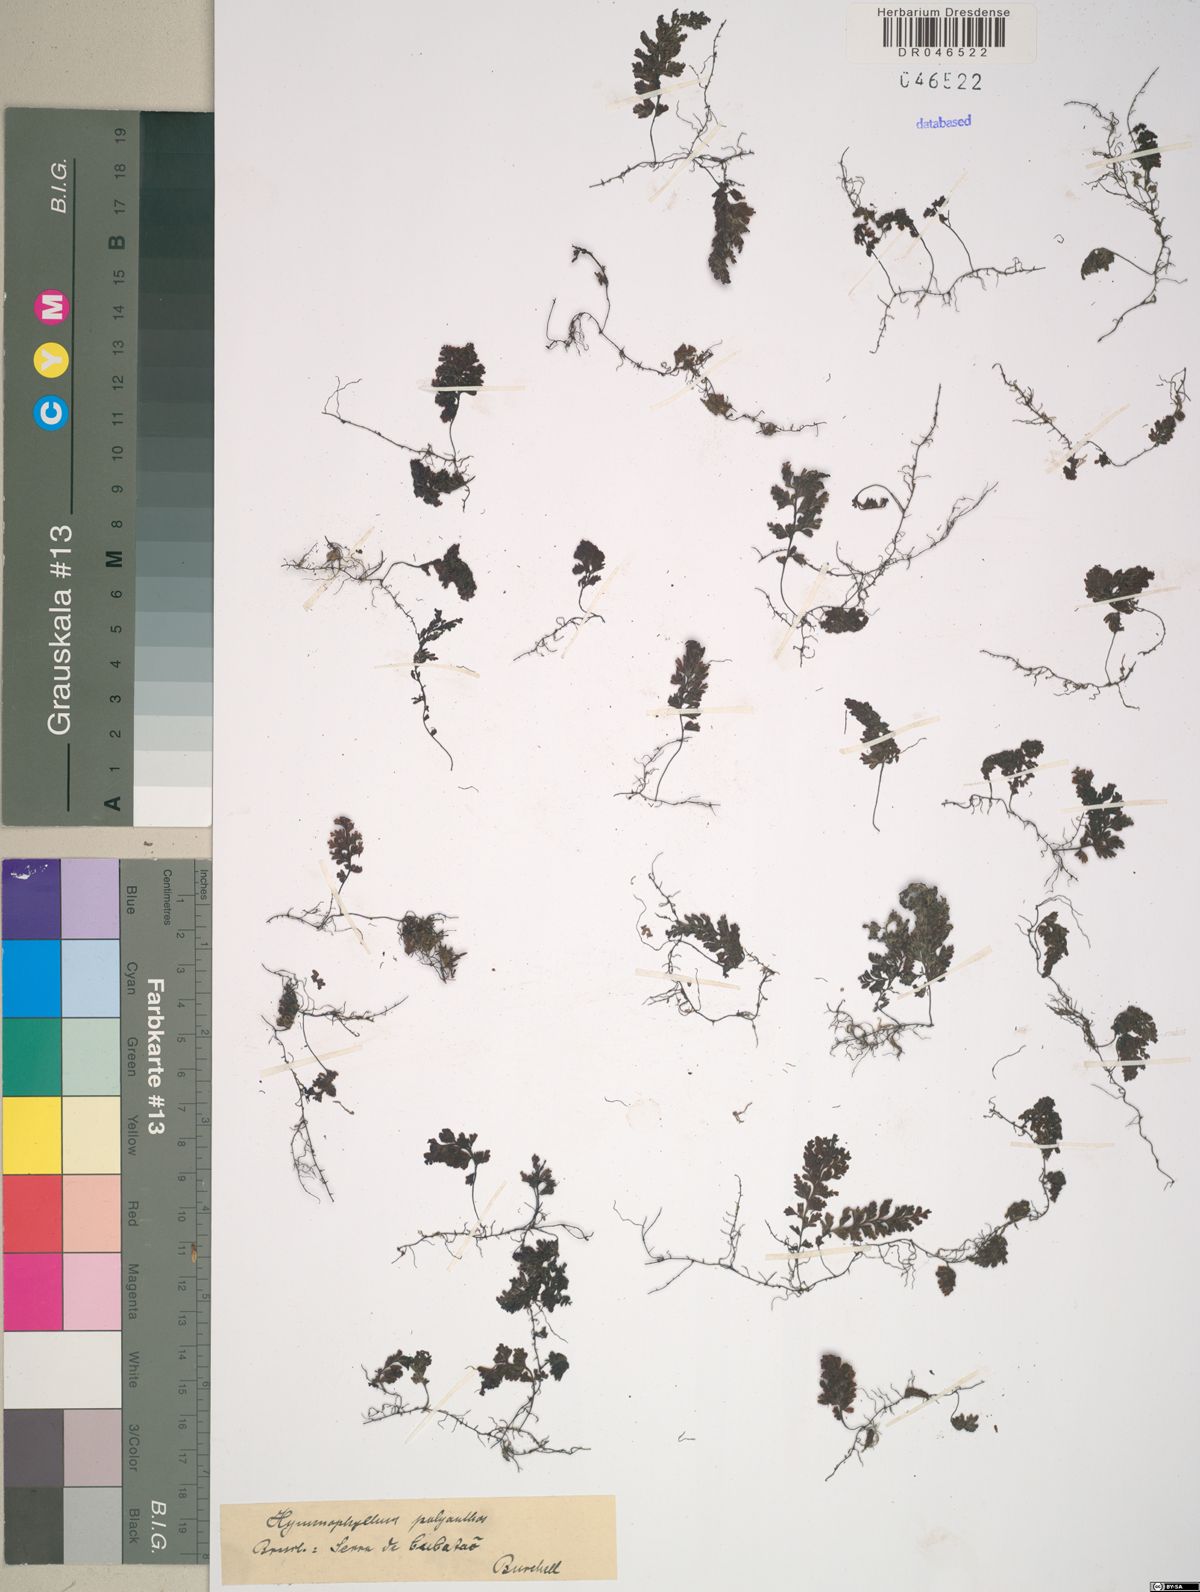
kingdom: Plantae
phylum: Tracheophyta
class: Polypodiopsida
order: Hymenophyllales
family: Hymenophyllaceae
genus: Hymenophyllum
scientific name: Hymenophyllum polyanthos
